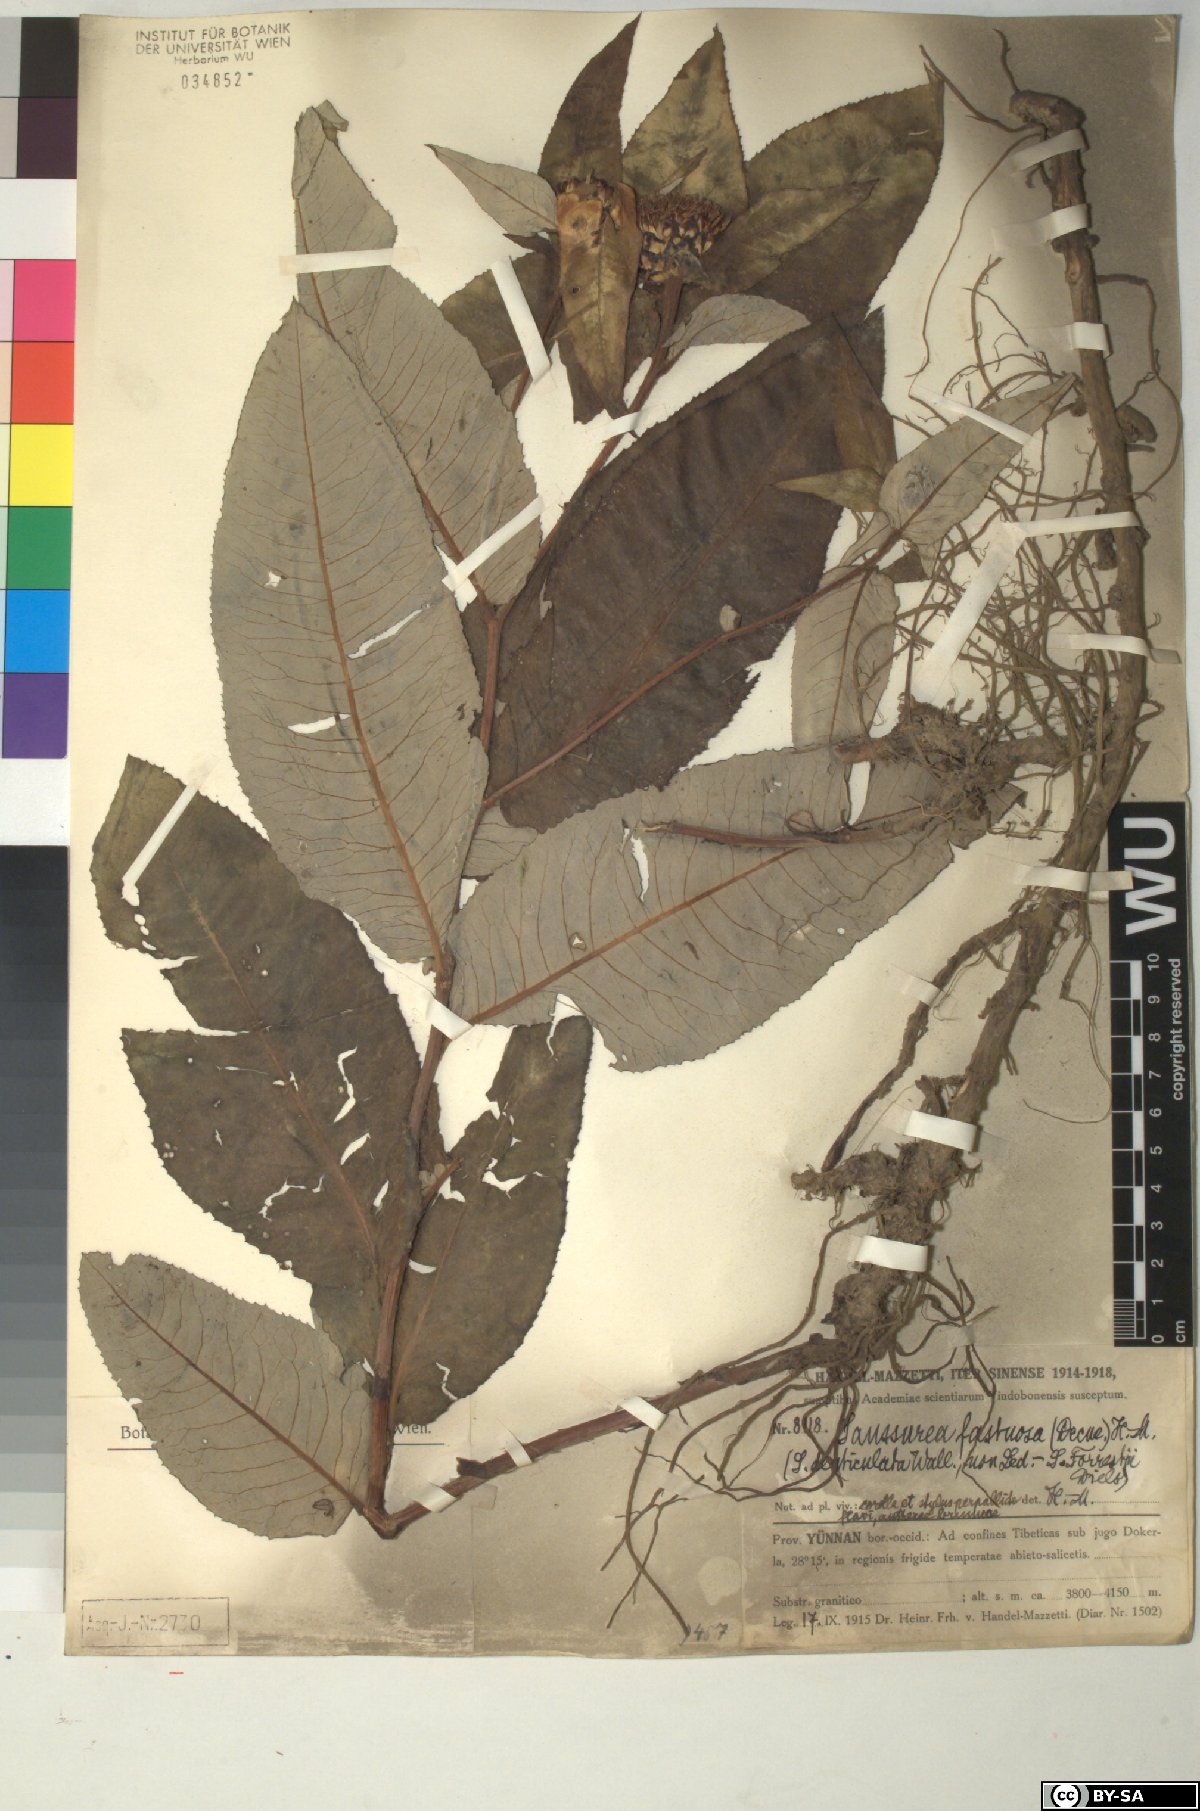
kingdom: Plantae
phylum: Tracheophyta
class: Magnoliopsida
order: Asterales
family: Asteraceae
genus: Shangwua
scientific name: Shangwua denticulata
